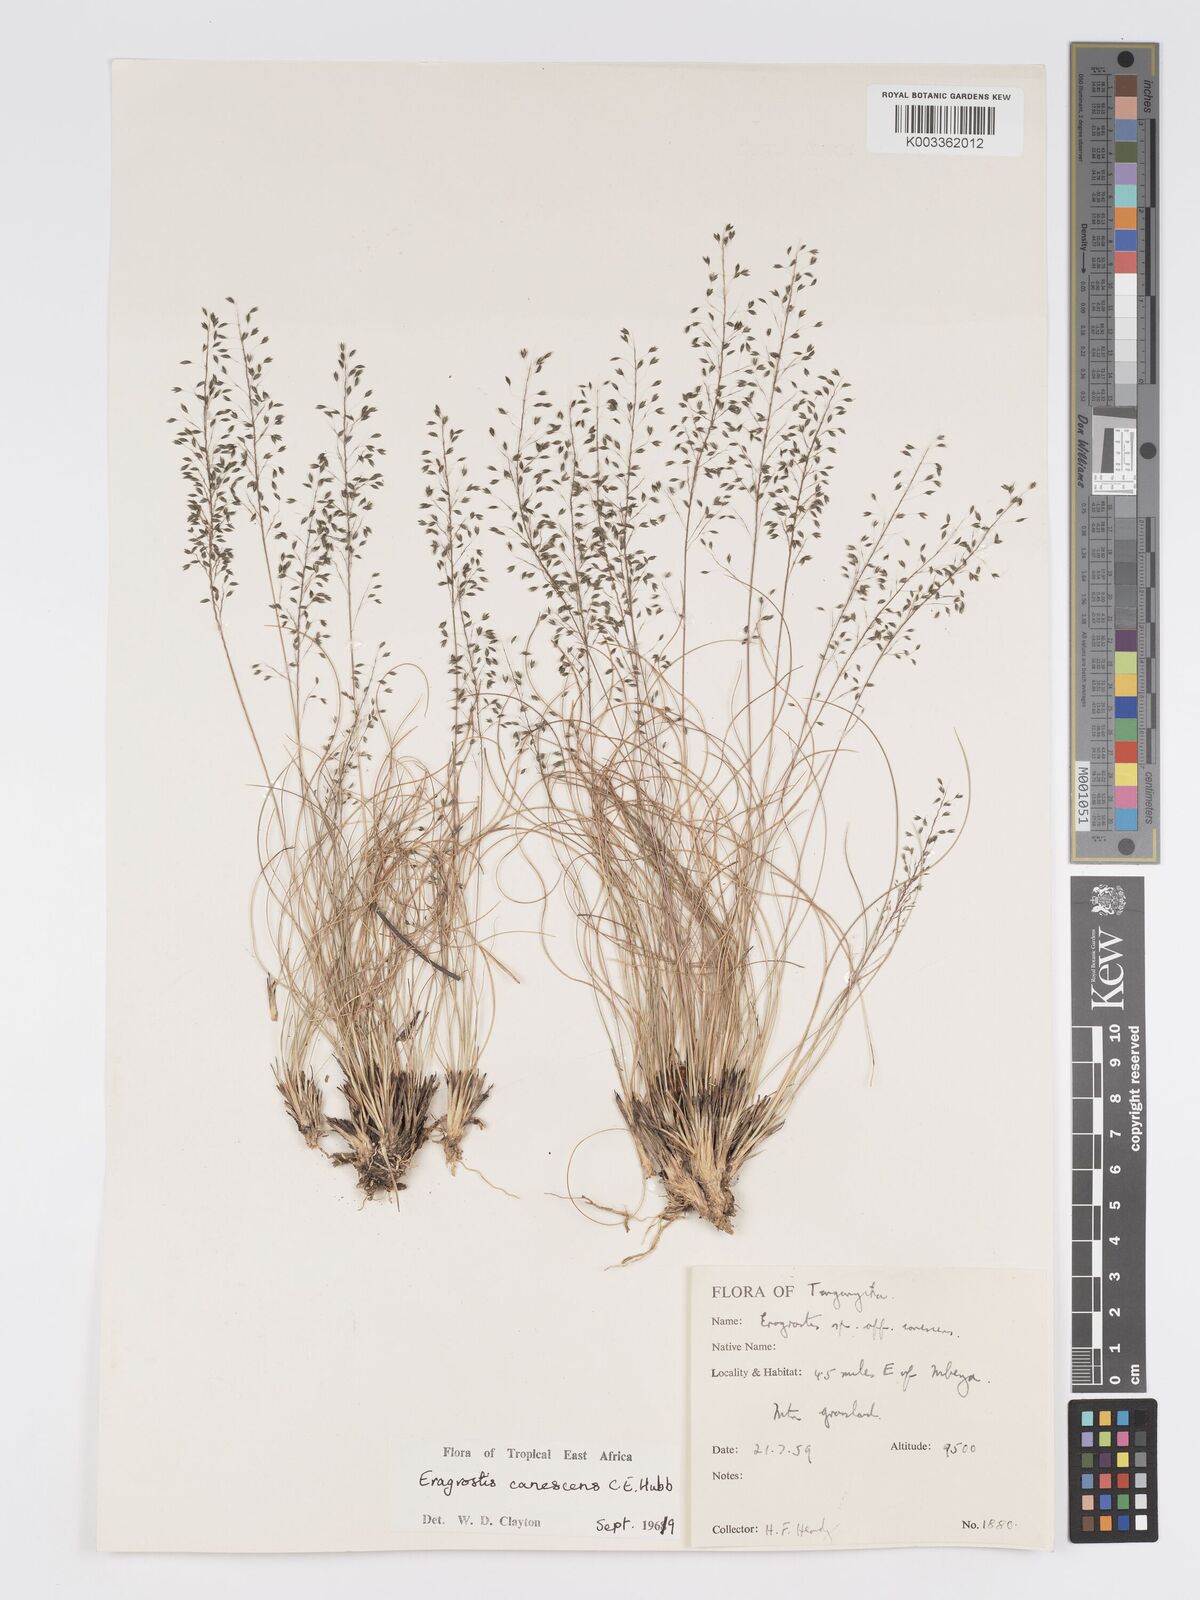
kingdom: Plantae
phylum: Tracheophyta
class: Liliopsida
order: Poales
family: Poaceae
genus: Eragrostis
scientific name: Eragrostis canescens
